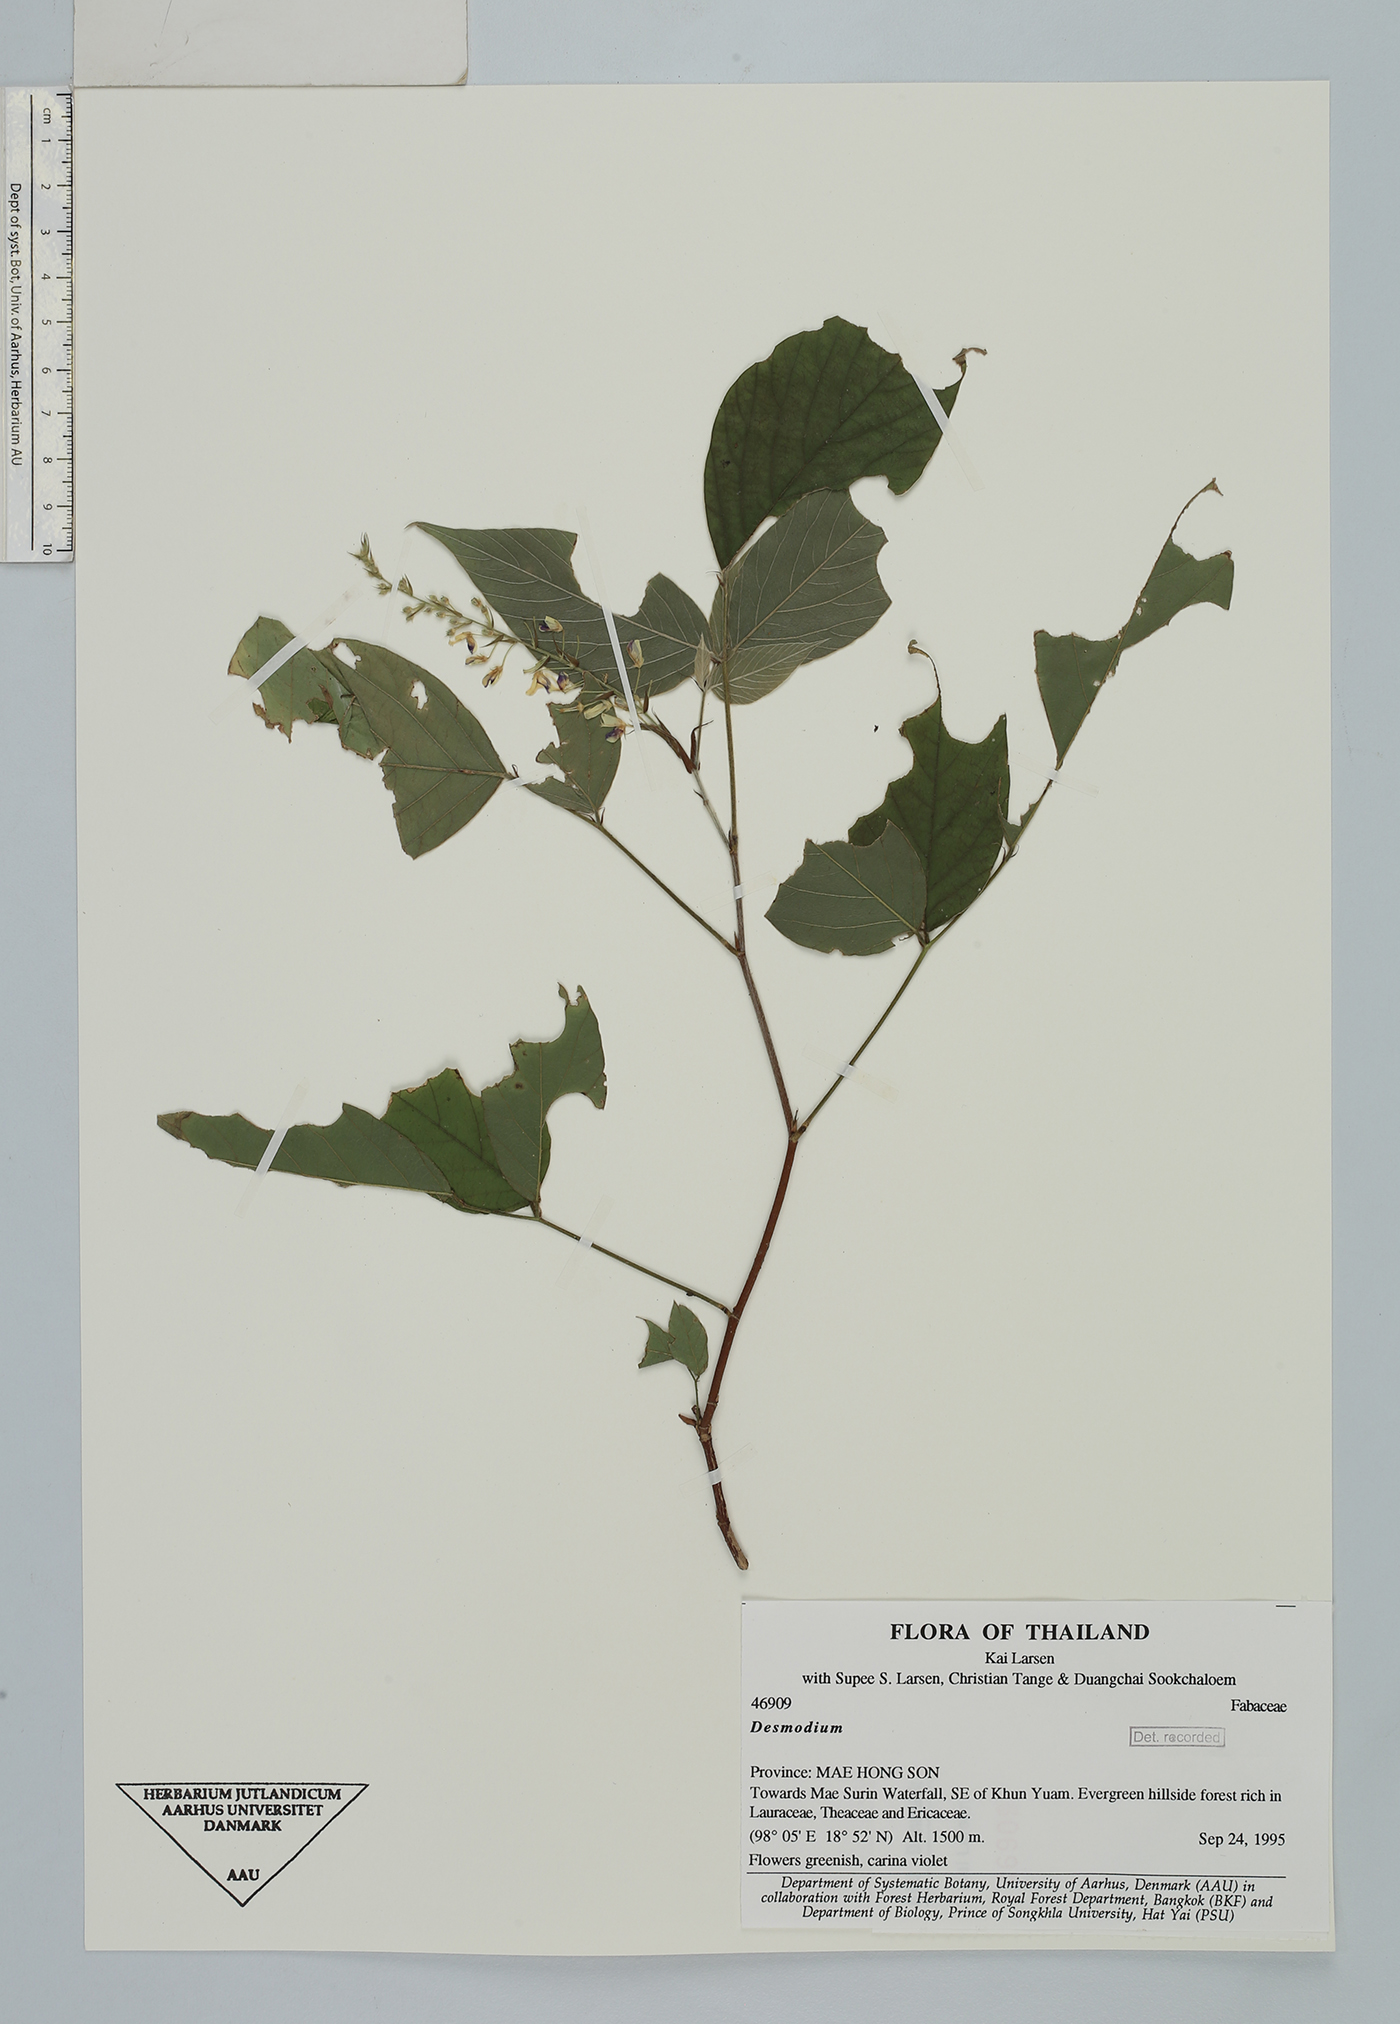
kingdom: Plantae
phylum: Tracheophyta
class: Magnoliopsida
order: Fabales
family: Fabaceae
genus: Sohmaea
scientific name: Sohmaea laxiflora
